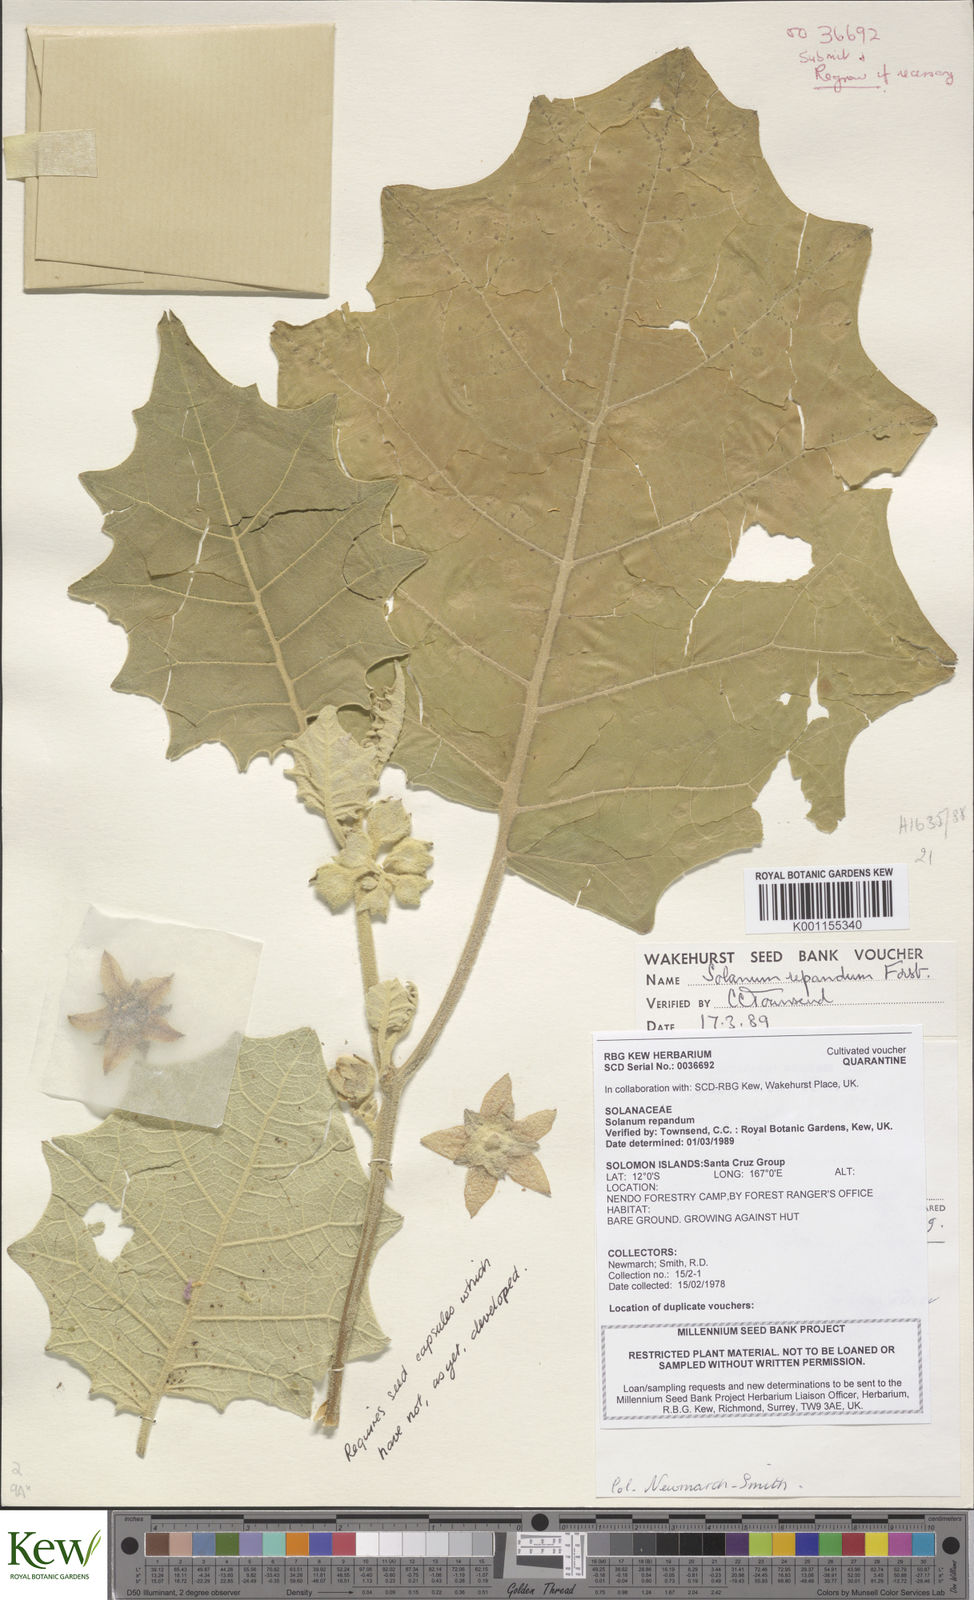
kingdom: Plantae
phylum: Tracheophyta
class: Magnoliopsida
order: Solanales
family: Solanaceae
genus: Solanum
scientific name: Solanum repandum
